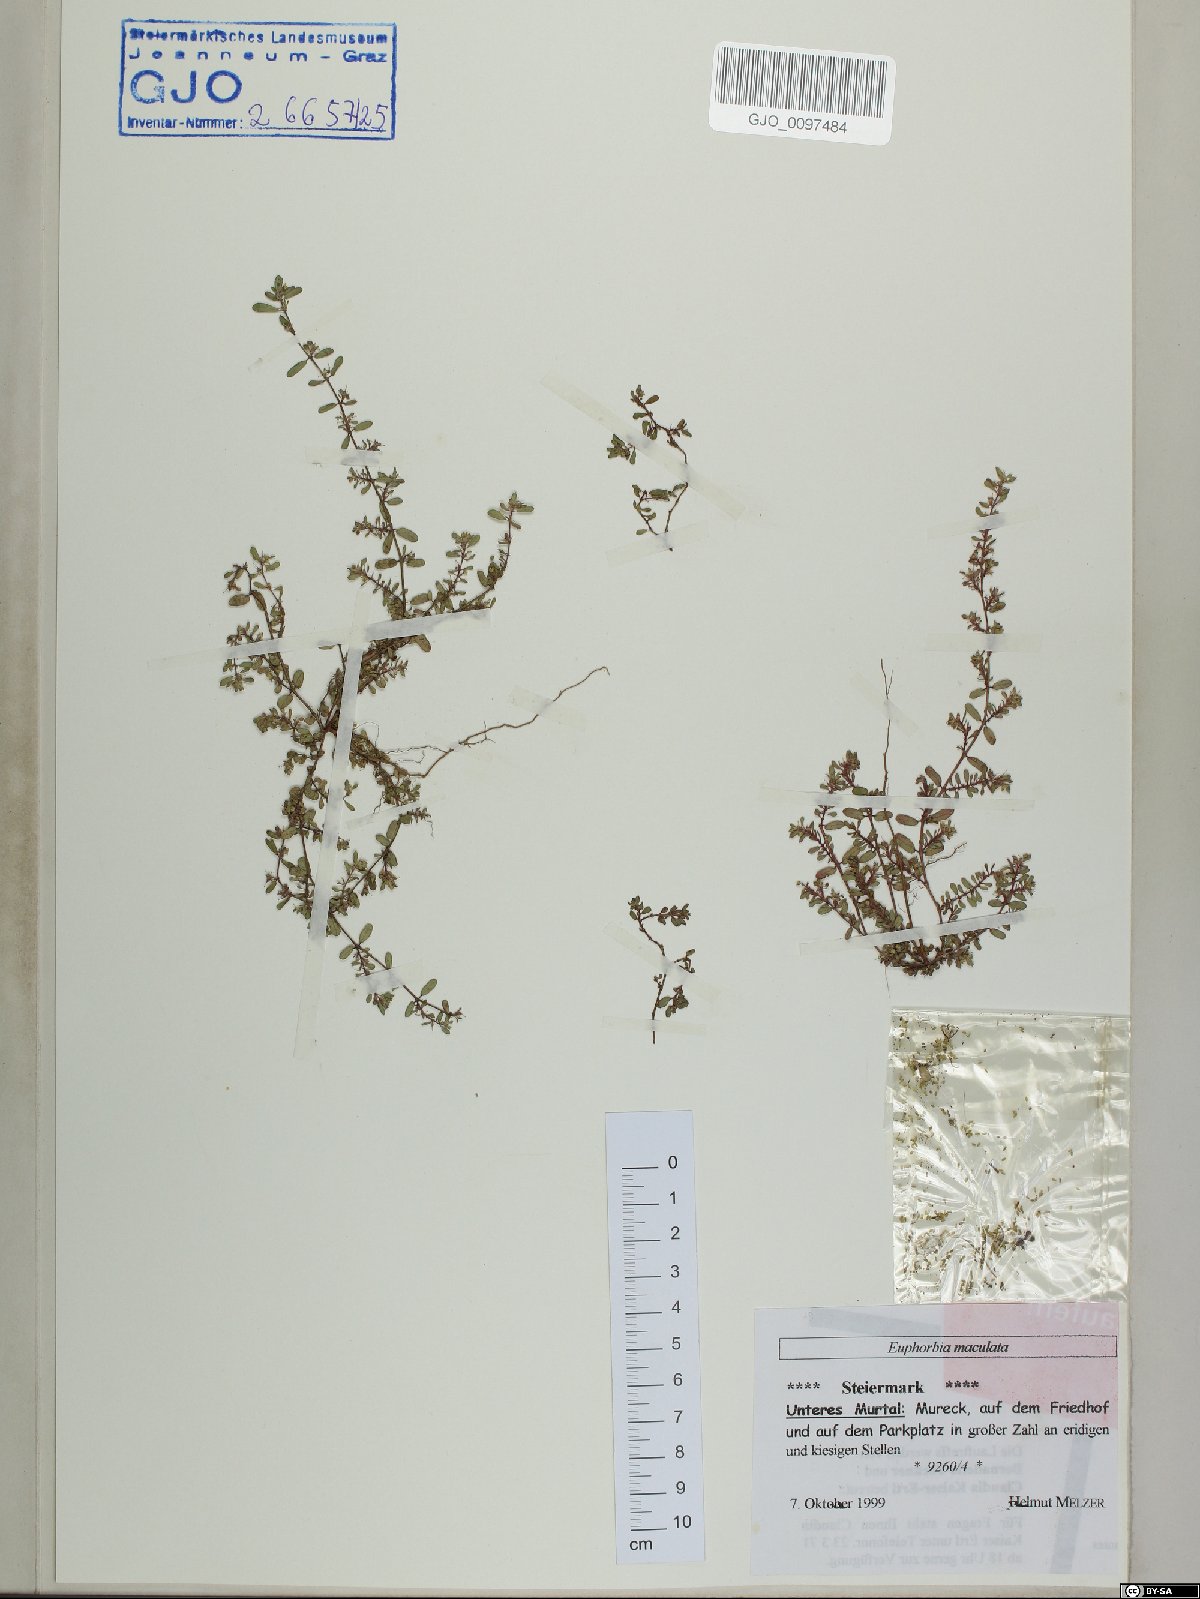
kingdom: Plantae
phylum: Tracheophyta
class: Magnoliopsida
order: Malpighiales
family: Euphorbiaceae
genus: Euphorbia
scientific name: Euphorbia maculata
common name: Spotted spurge
